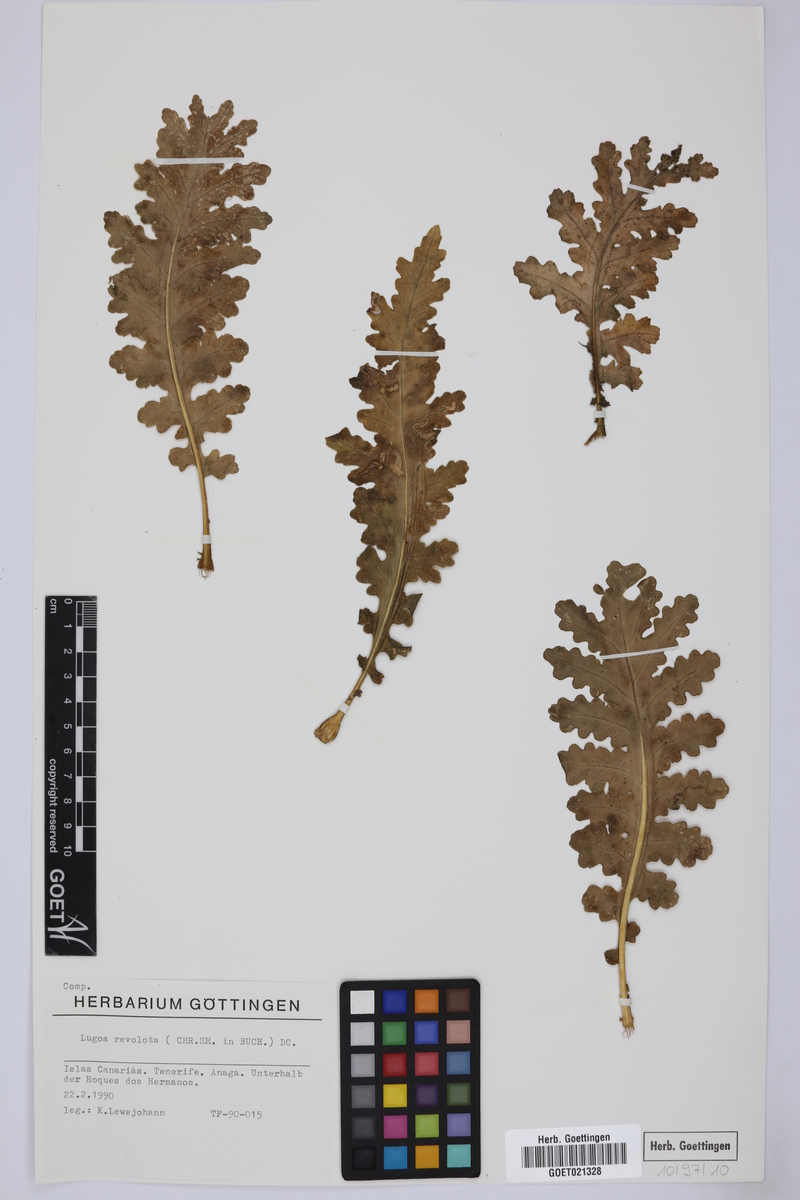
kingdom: Plantae
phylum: Tracheophyta
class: Magnoliopsida
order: Asterales
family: Asteraceae
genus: Gonospermum
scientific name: Gonospermum revolutum
